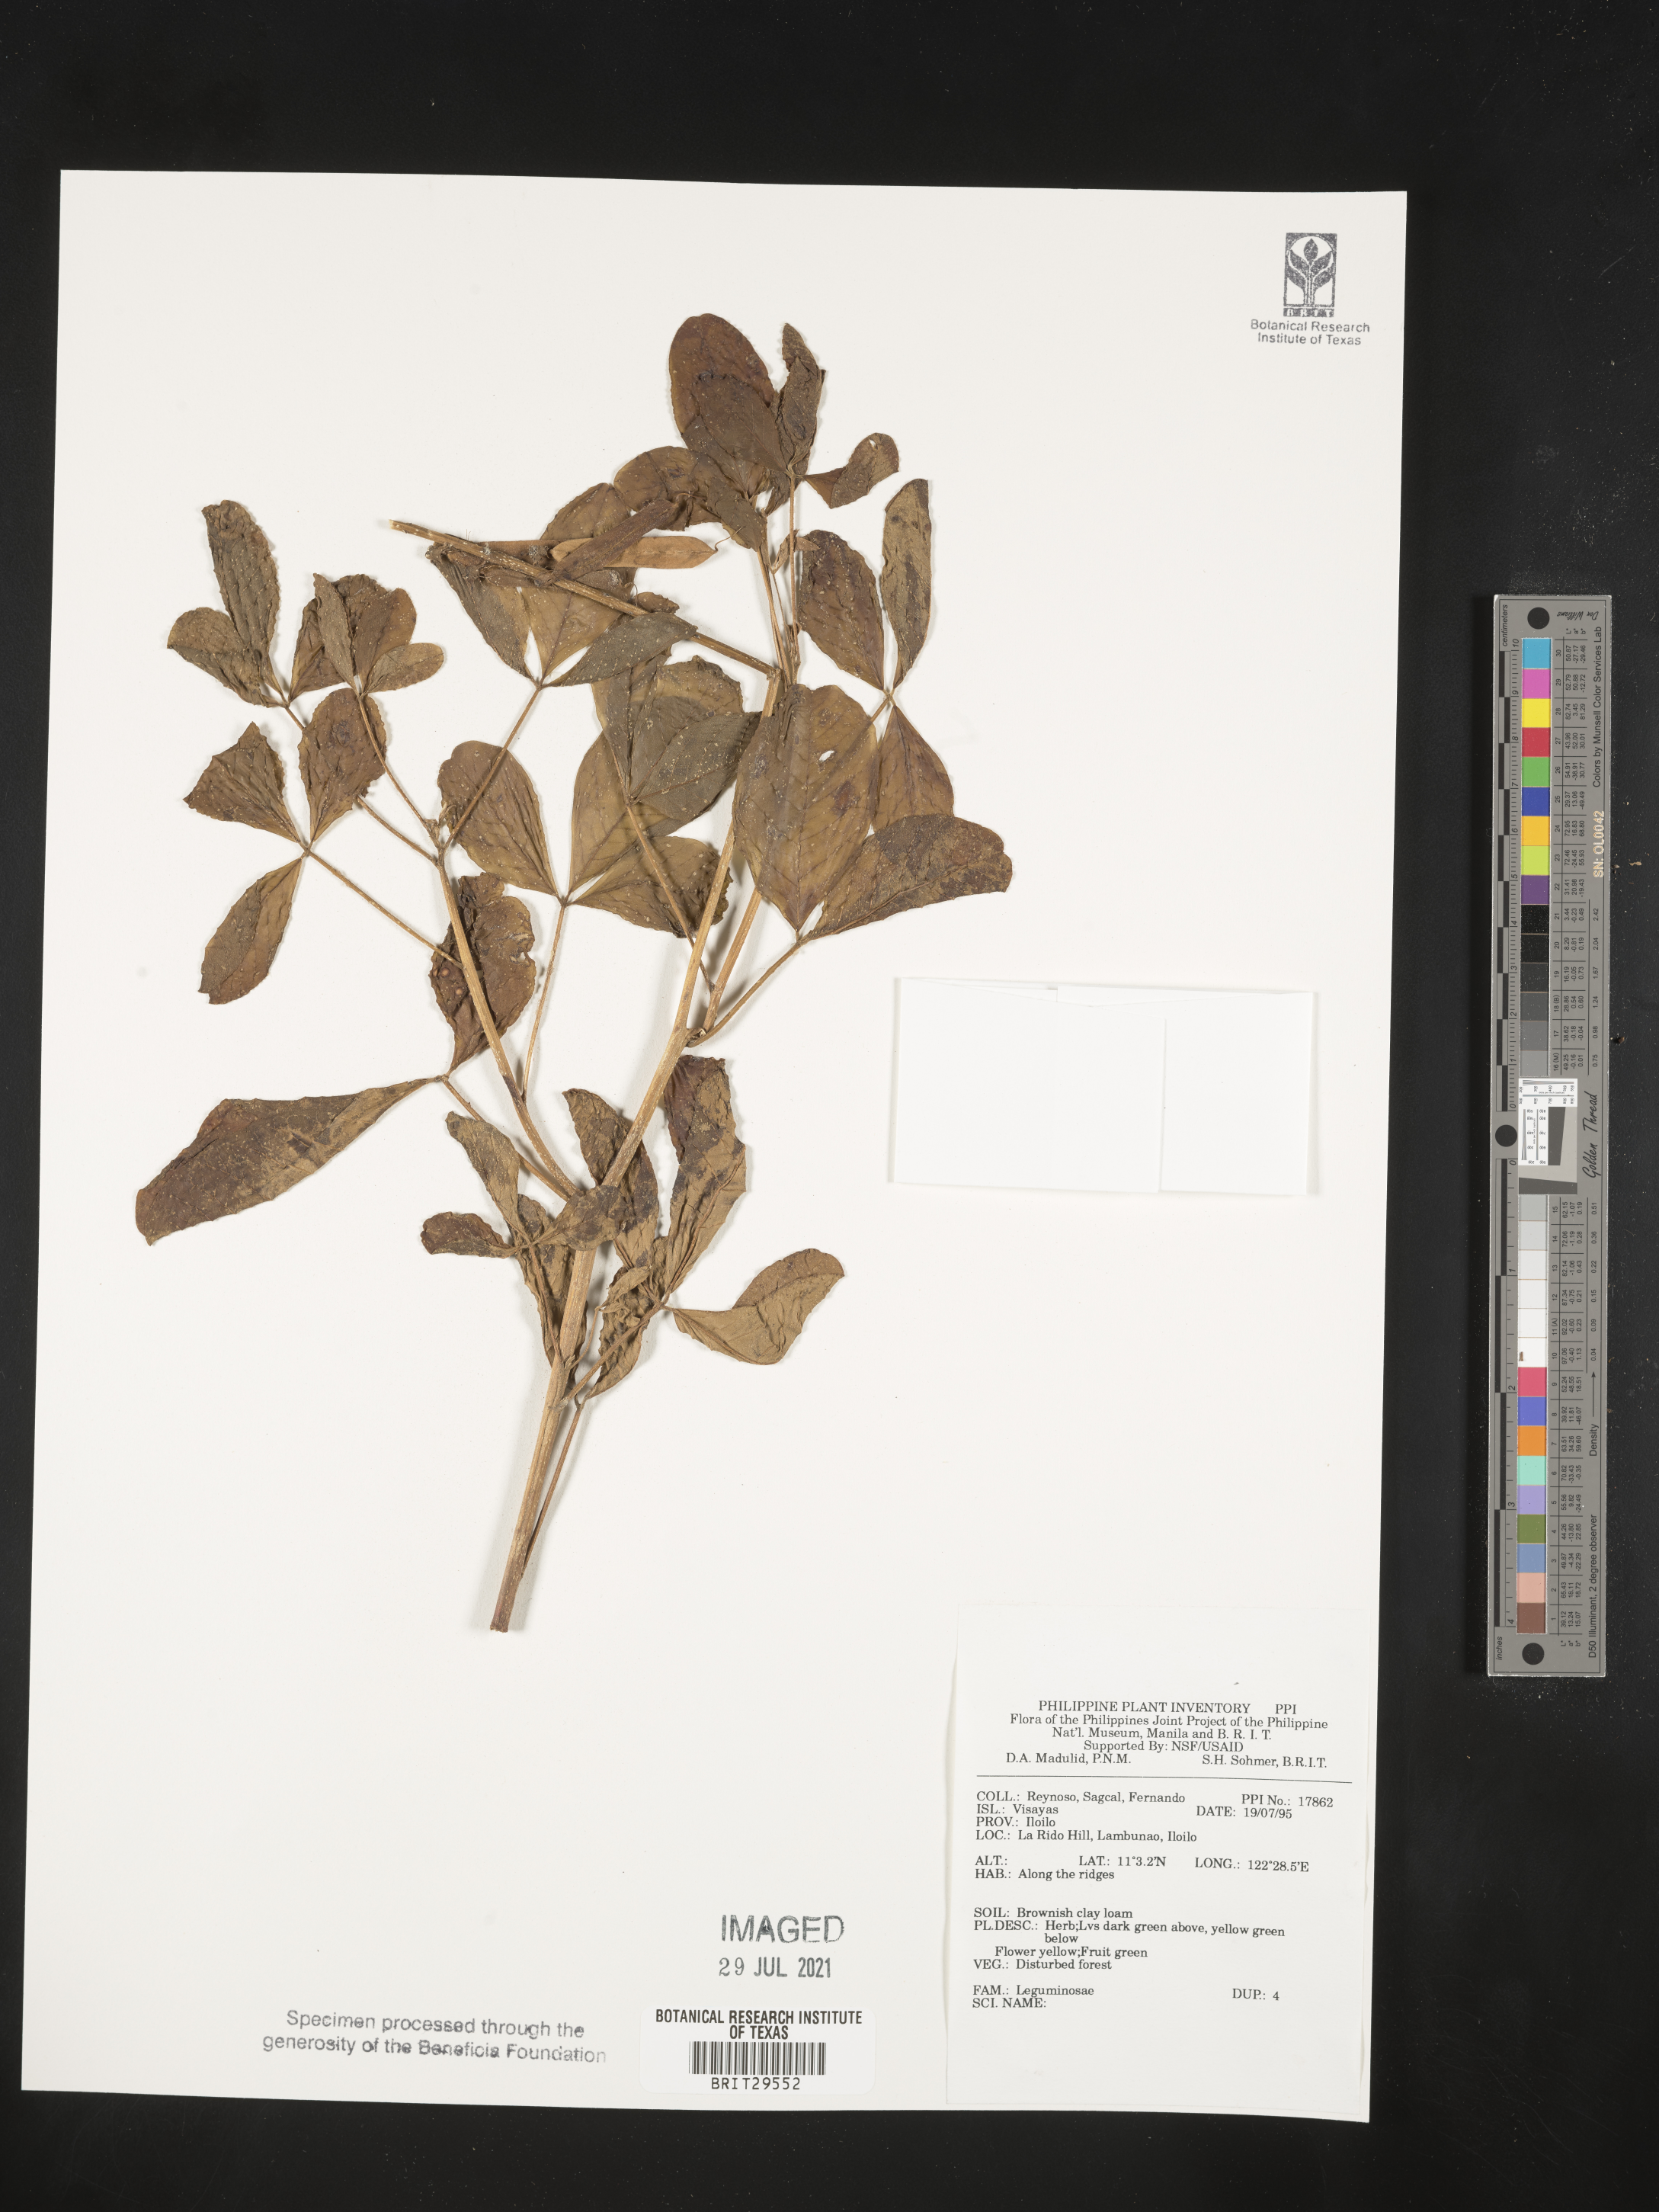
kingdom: Plantae
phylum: Tracheophyta
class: Magnoliopsida
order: Fabales
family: Fabaceae
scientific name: Fabaceae
